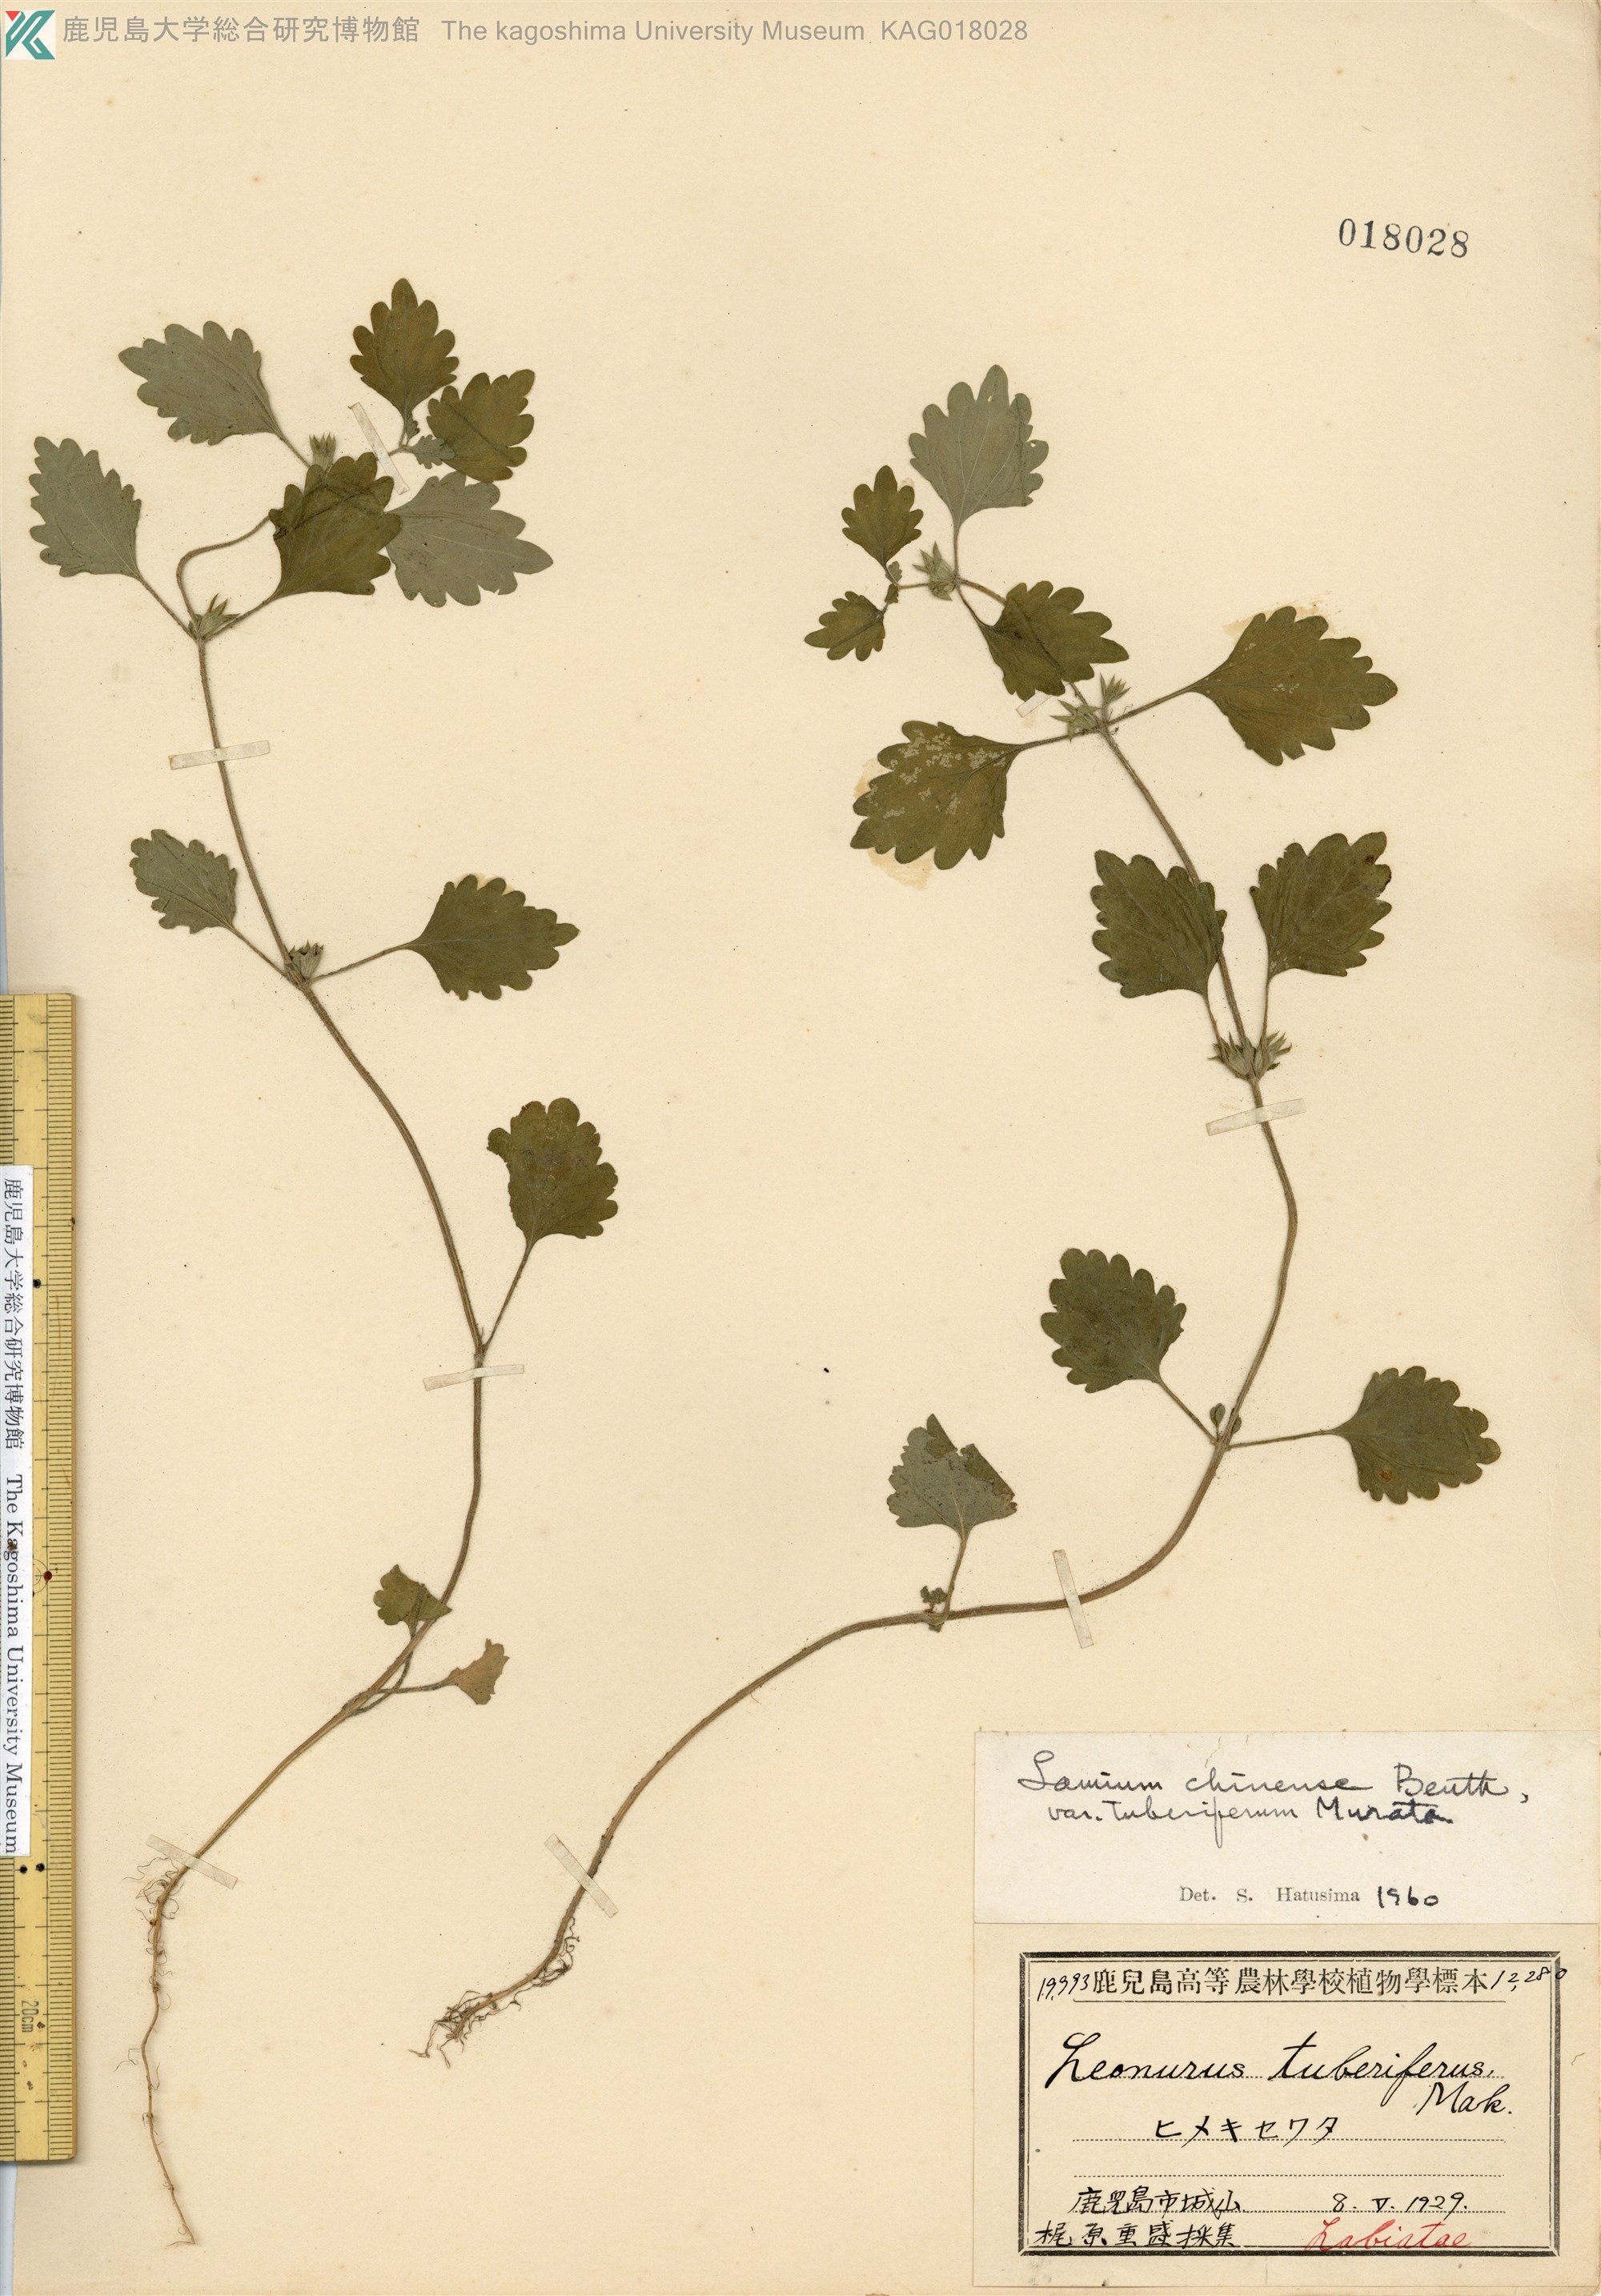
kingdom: Plantae
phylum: Tracheophyta
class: Magnoliopsida
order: Lamiales
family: Lamiaceae
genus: Matsumurella
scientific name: Matsumurella tuberifera
